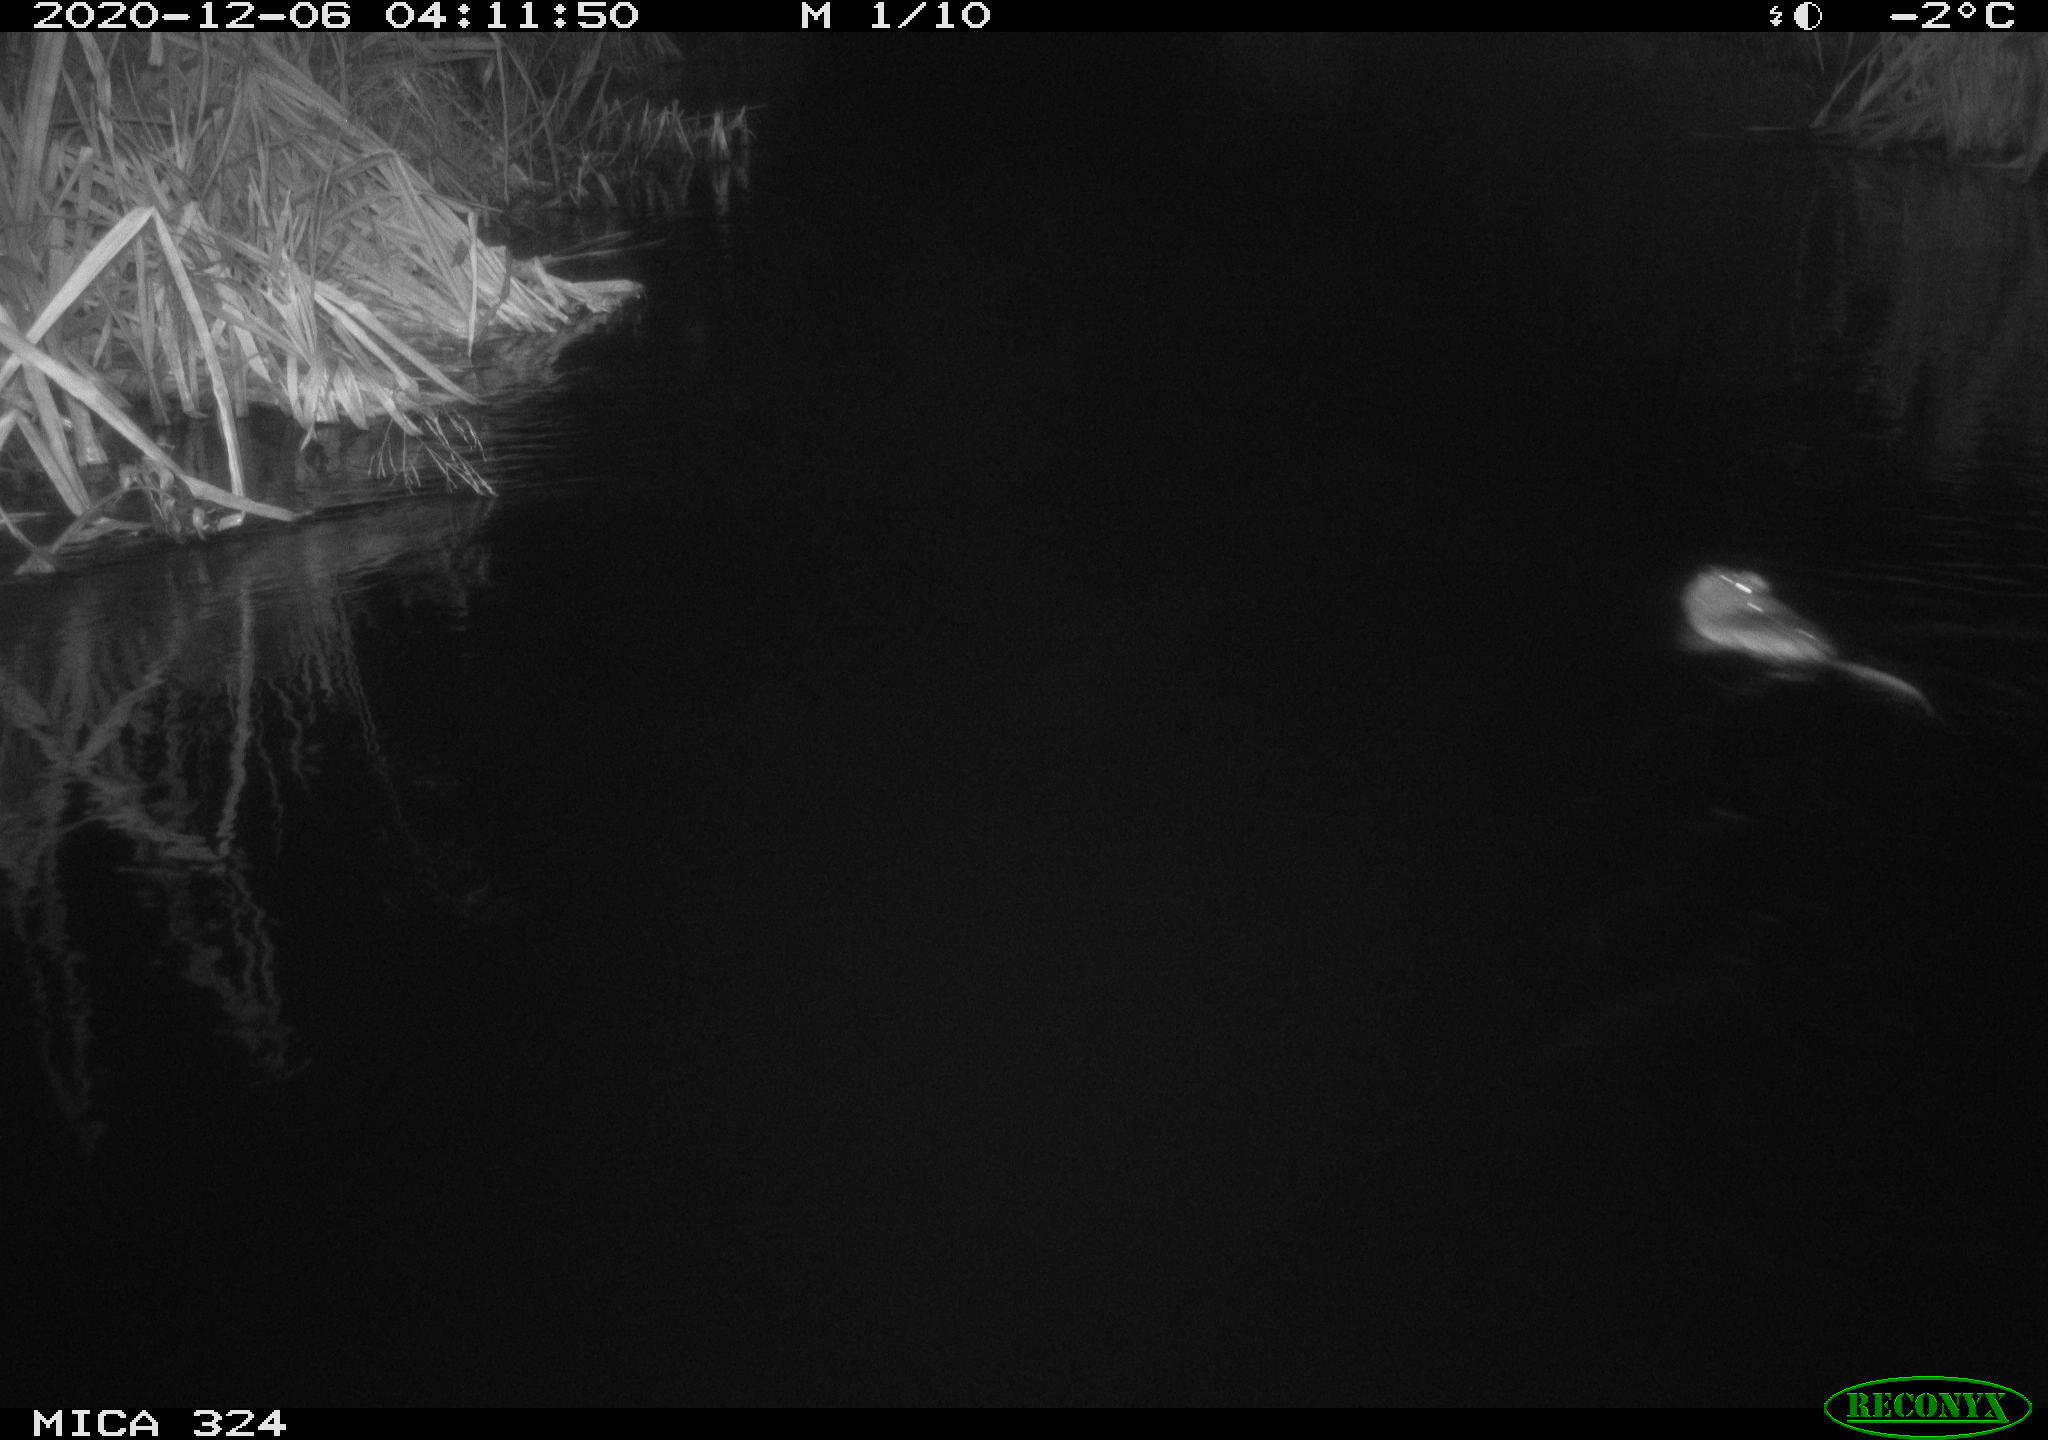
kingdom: Animalia
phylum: Chordata
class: Mammalia
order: Rodentia
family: Cricetidae
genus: Ondatra
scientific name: Ondatra zibethicus
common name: Muskrat
